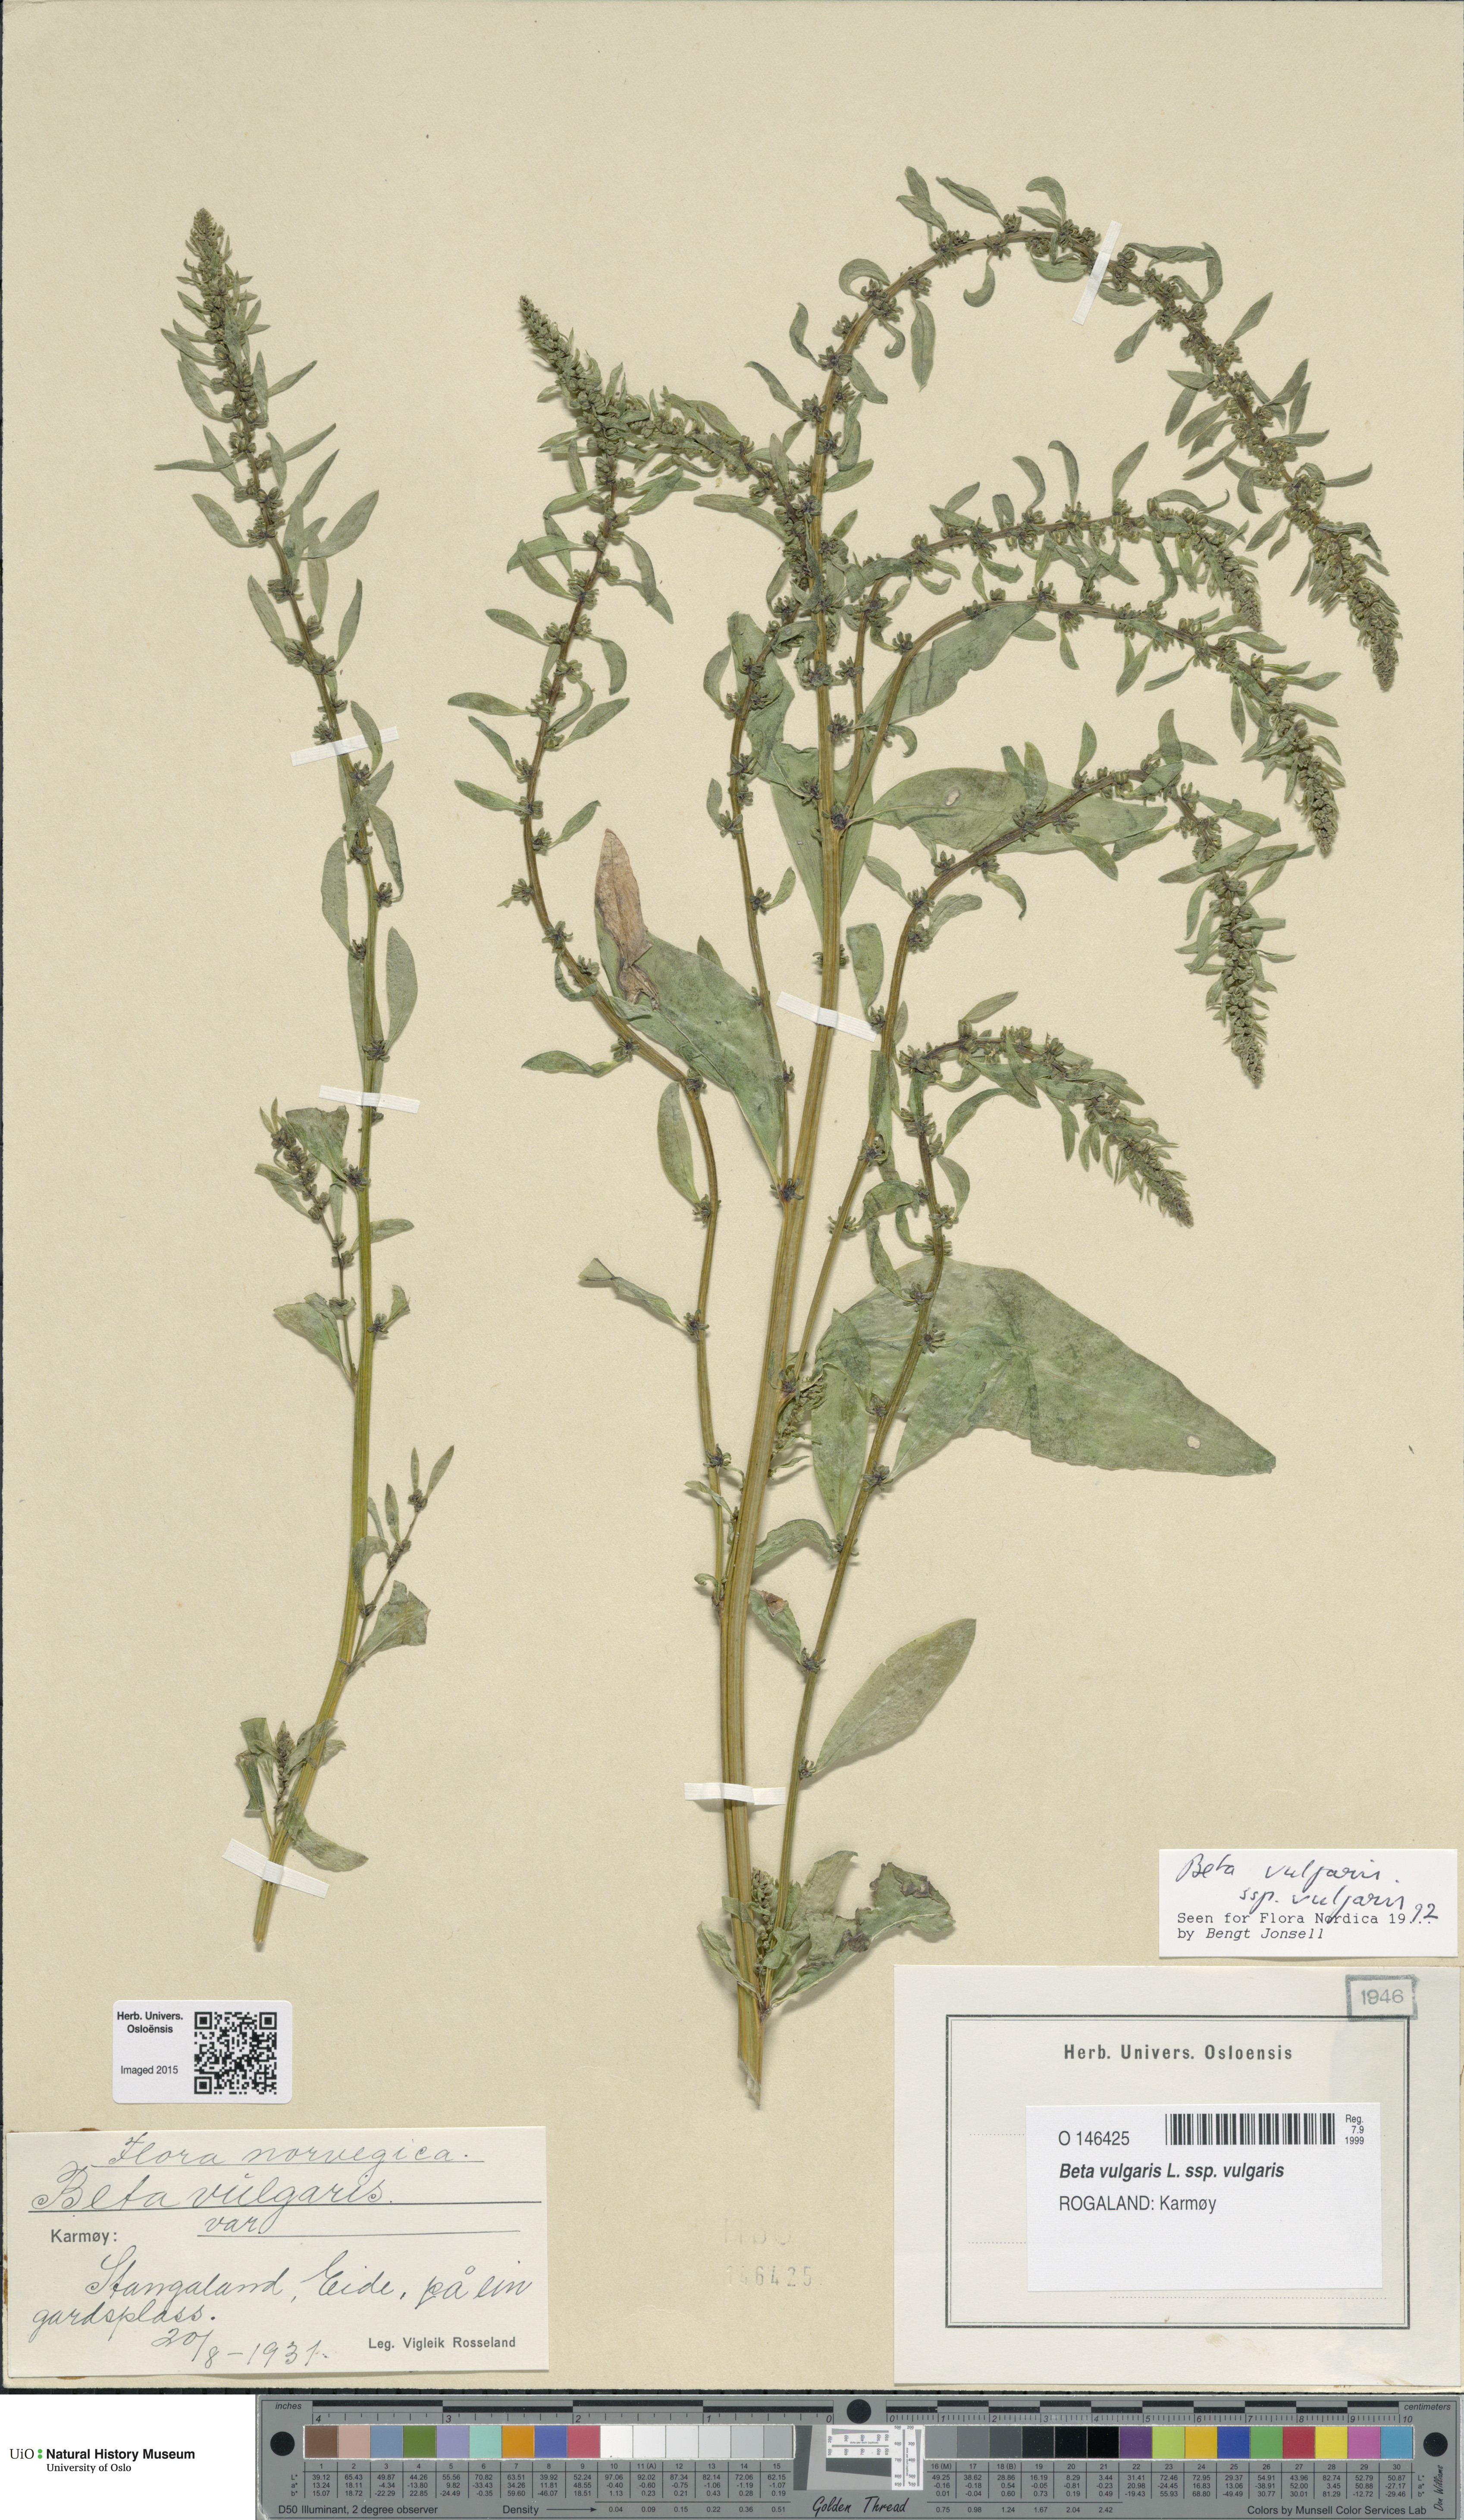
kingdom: Plantae
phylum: Tracheophyta
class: Magnoliopsida
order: Caryophyllales
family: Amaranthaceae
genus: Beta
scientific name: Beta vulgaris
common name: Beet
